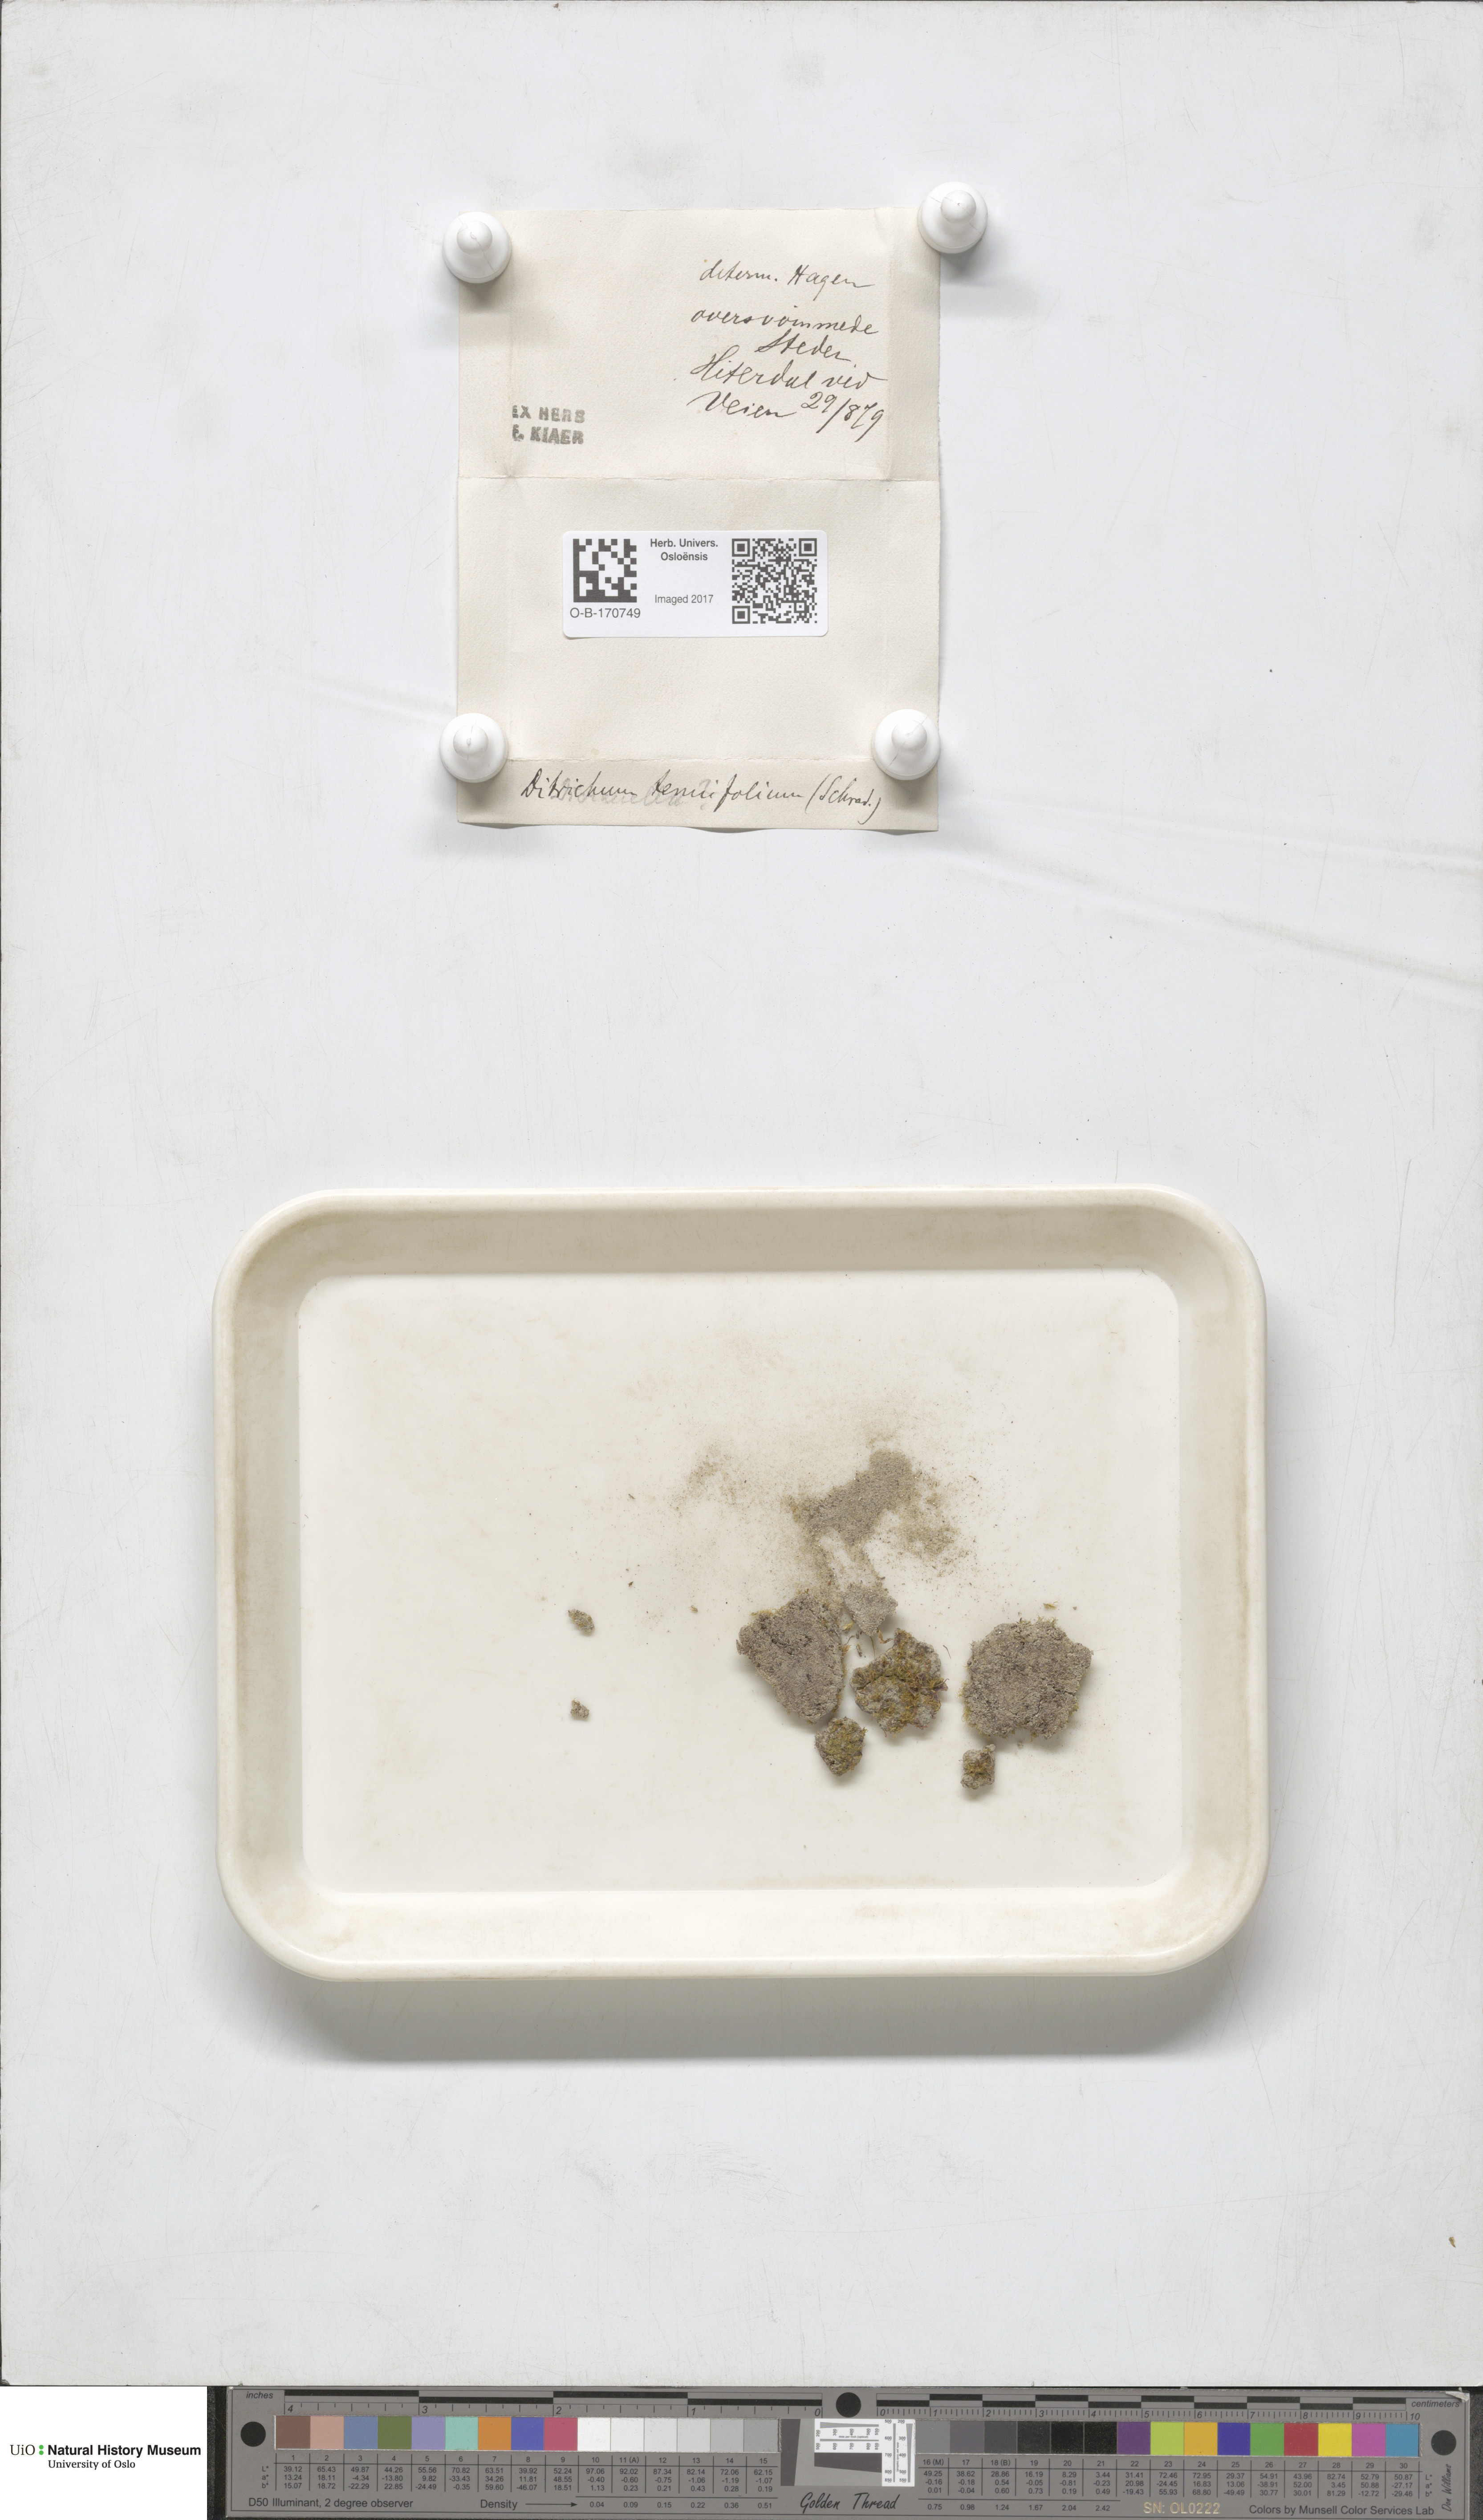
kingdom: Plantae
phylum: Bryophyta
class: Bryopsida
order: Dicranales
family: Ditrichaceae
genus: Trichodon
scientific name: Trichodon cylindricus
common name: Cylindric hairy-teeth moss
